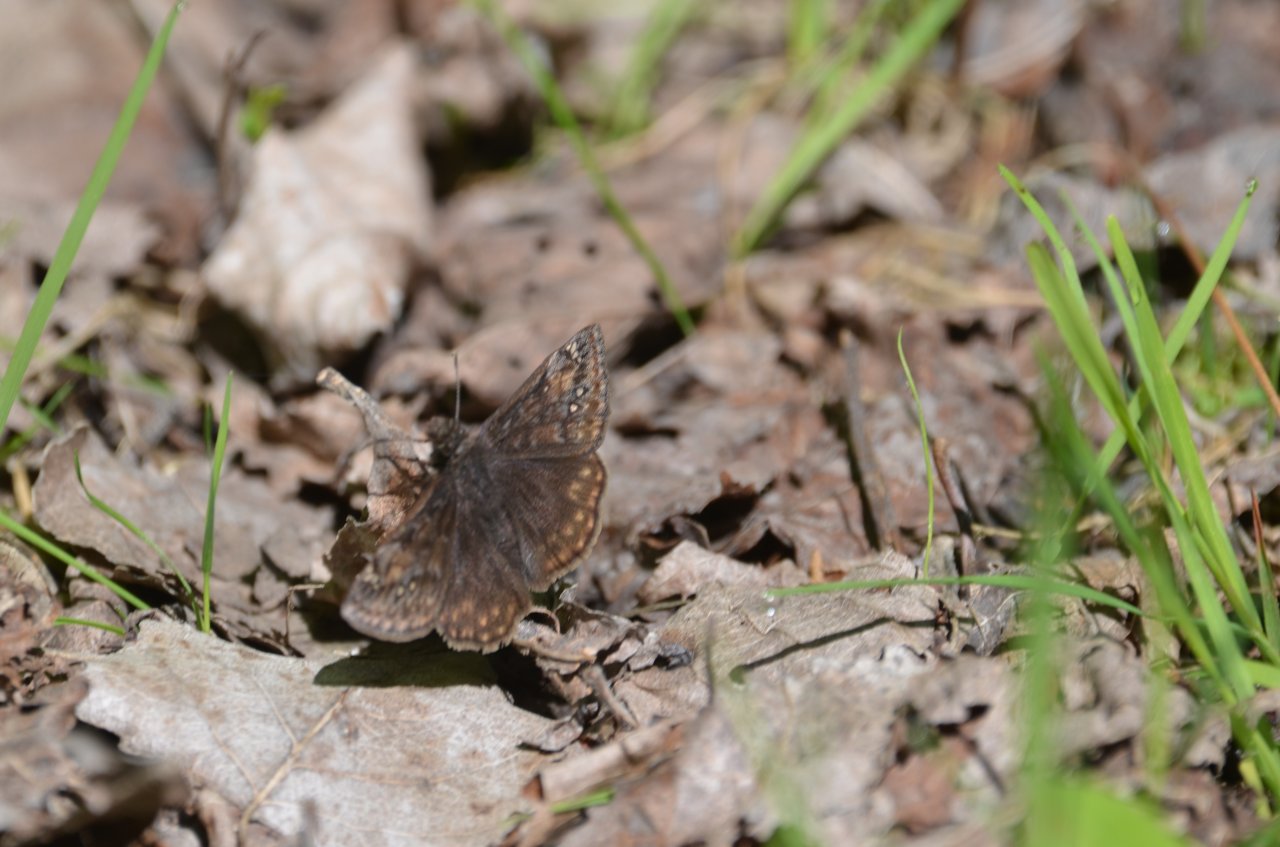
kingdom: Animalia
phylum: Arthropoda
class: Insecta
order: Lepidoptera
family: Hesperiidae
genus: Gesta
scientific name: Gesta
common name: Juvenal's Duskywing
